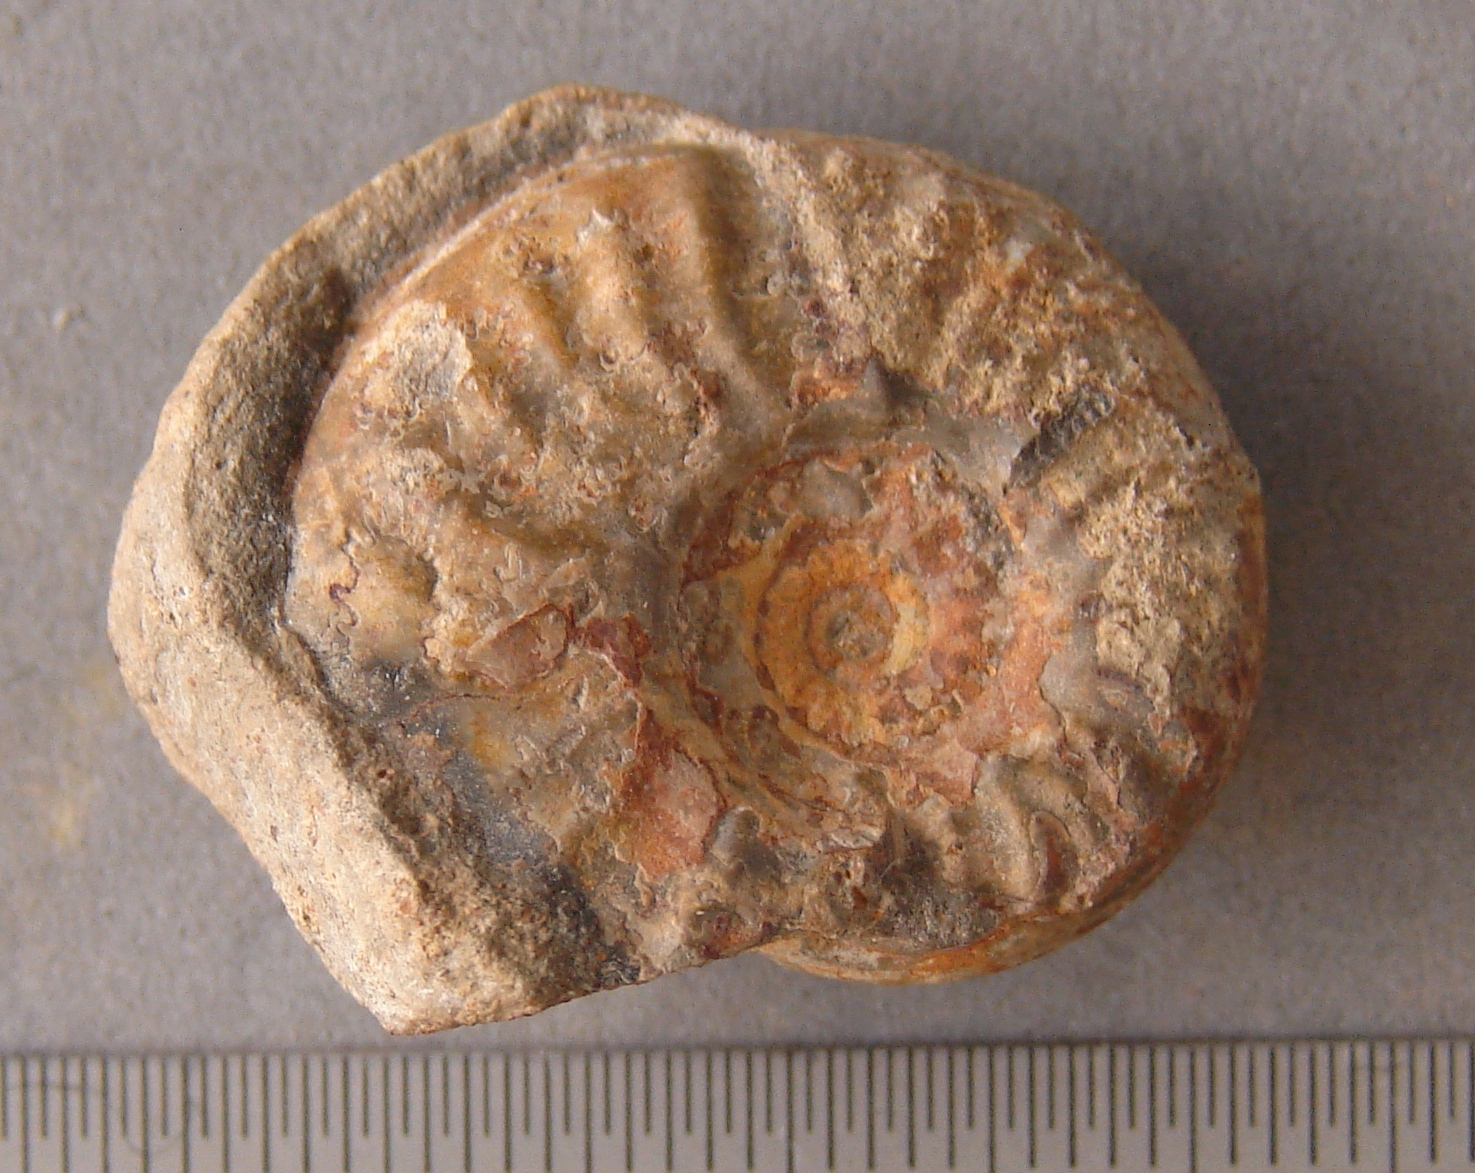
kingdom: Animalia
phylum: Mollusca
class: Cephalopoda
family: Graphoceratidae
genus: Reynesella
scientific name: Reynesella
